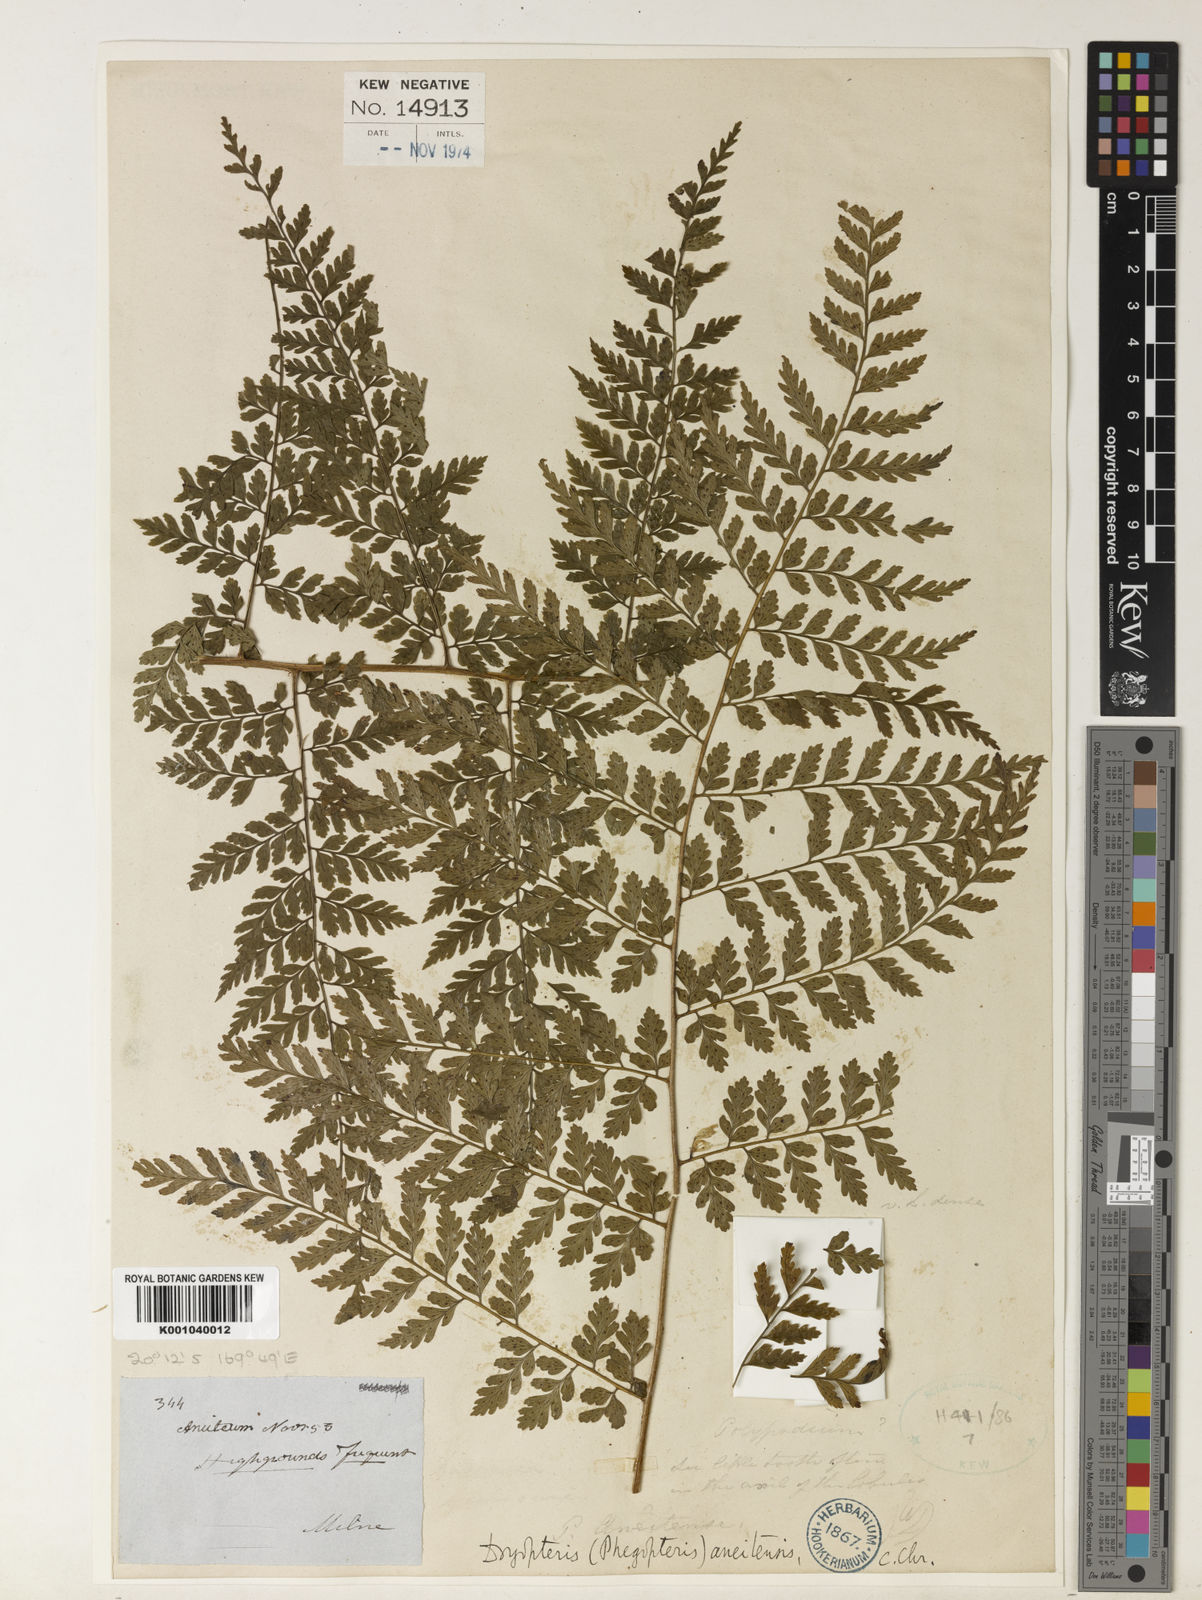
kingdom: Plantae
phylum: Tracheophyta
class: Polypodiopsida
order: Polypodiales
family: Dryopteridaceae
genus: Arachniodes
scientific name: Arachniodes
